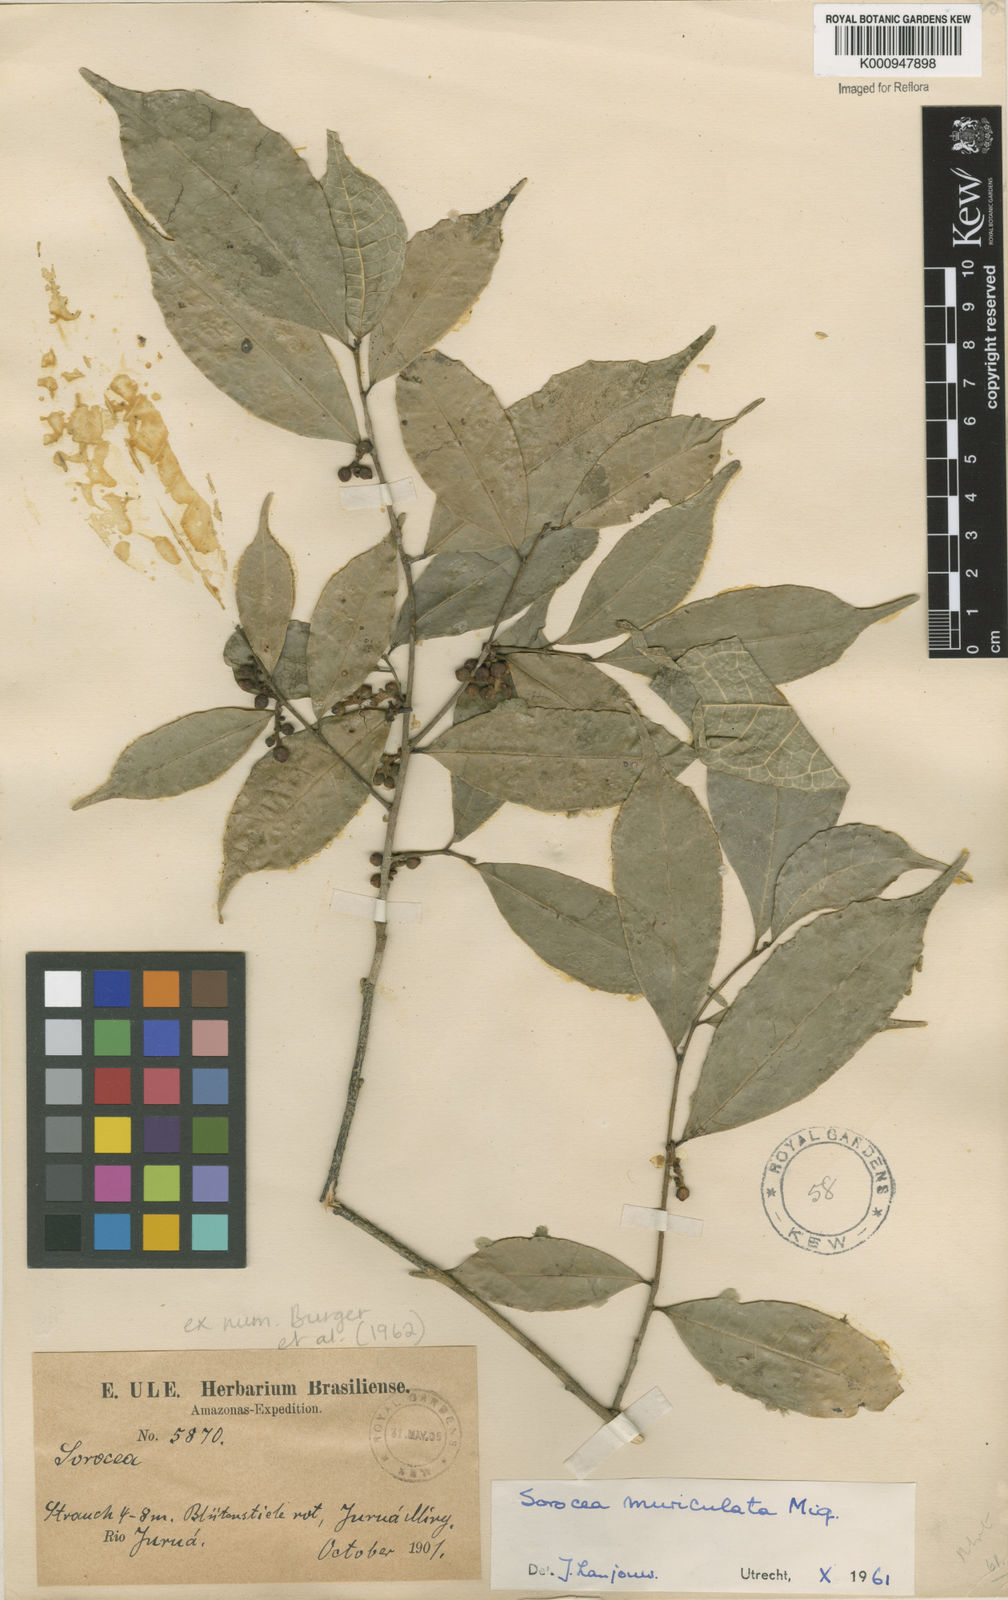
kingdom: Plantae
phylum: Tracheophyta
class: Magnoliopsida
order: Rosales
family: Moraceae
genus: Sorocea
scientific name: Sorocea muriculata
